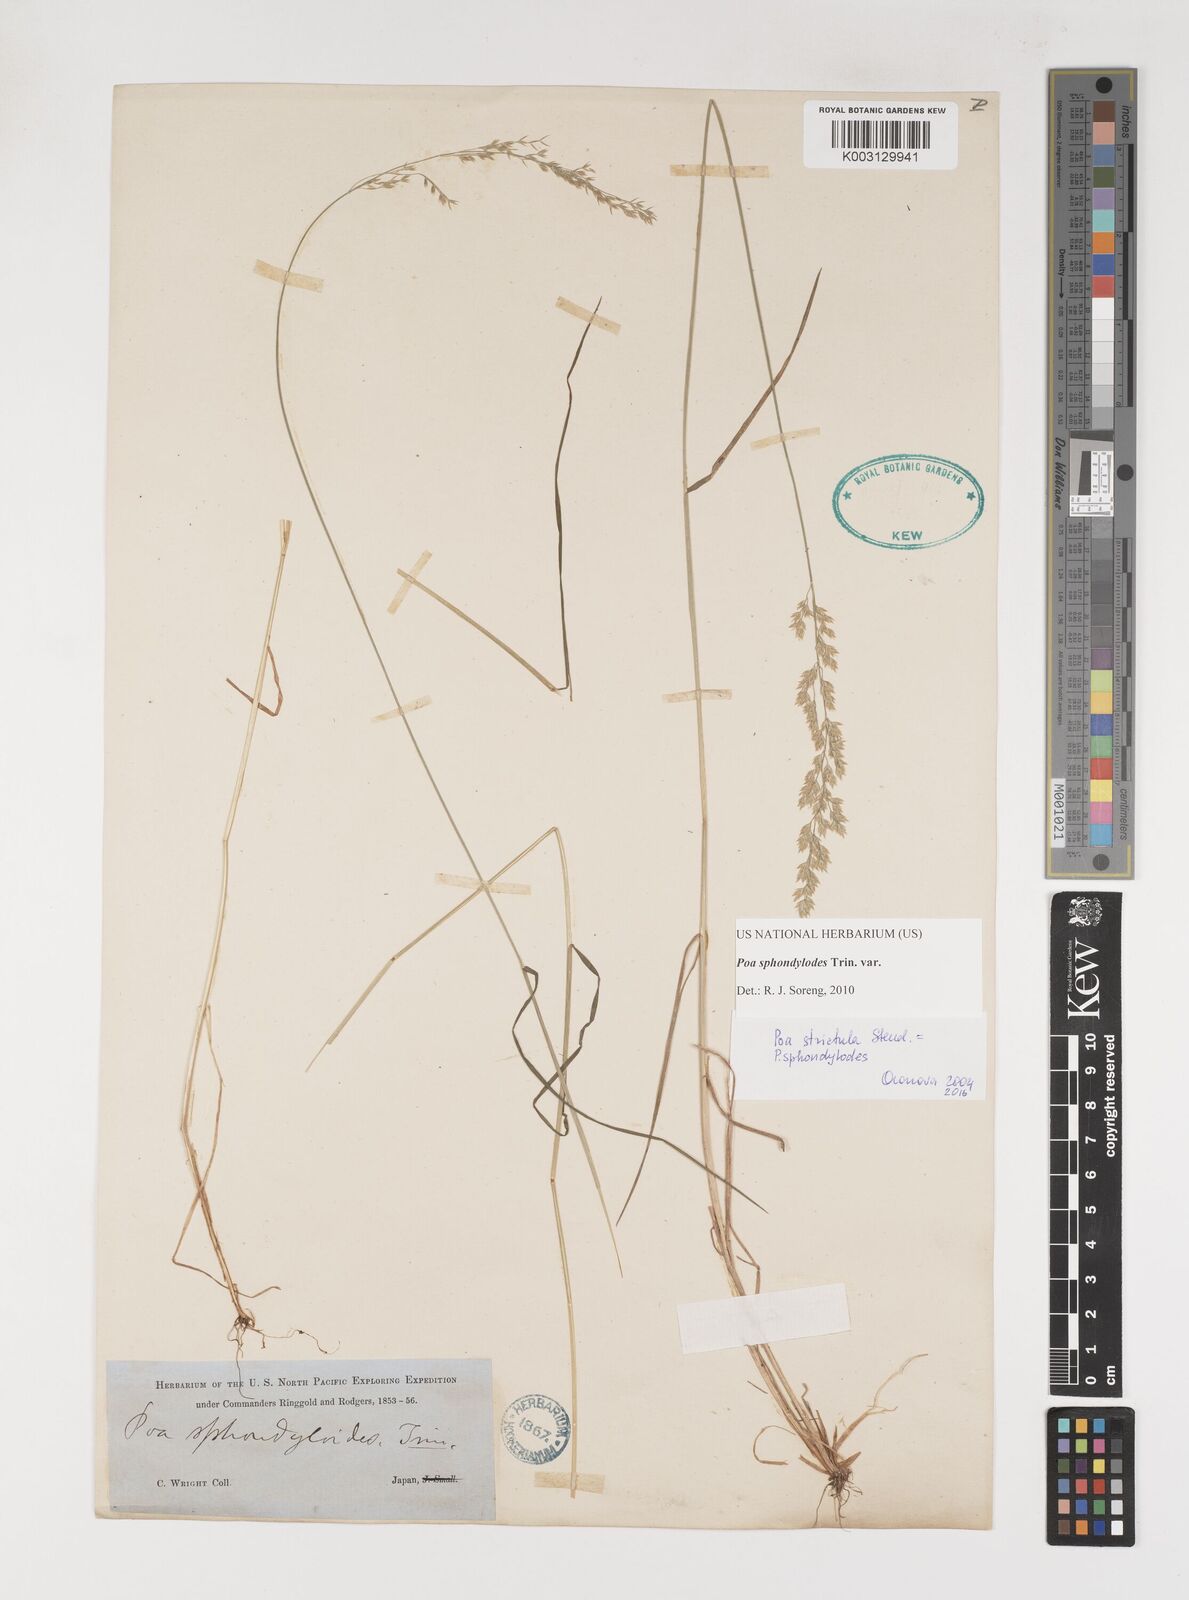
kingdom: Plantae
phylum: Tracheophyta
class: Liliopsida
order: Poales
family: Poaceae
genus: Poa
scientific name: Poa sphondylodes
